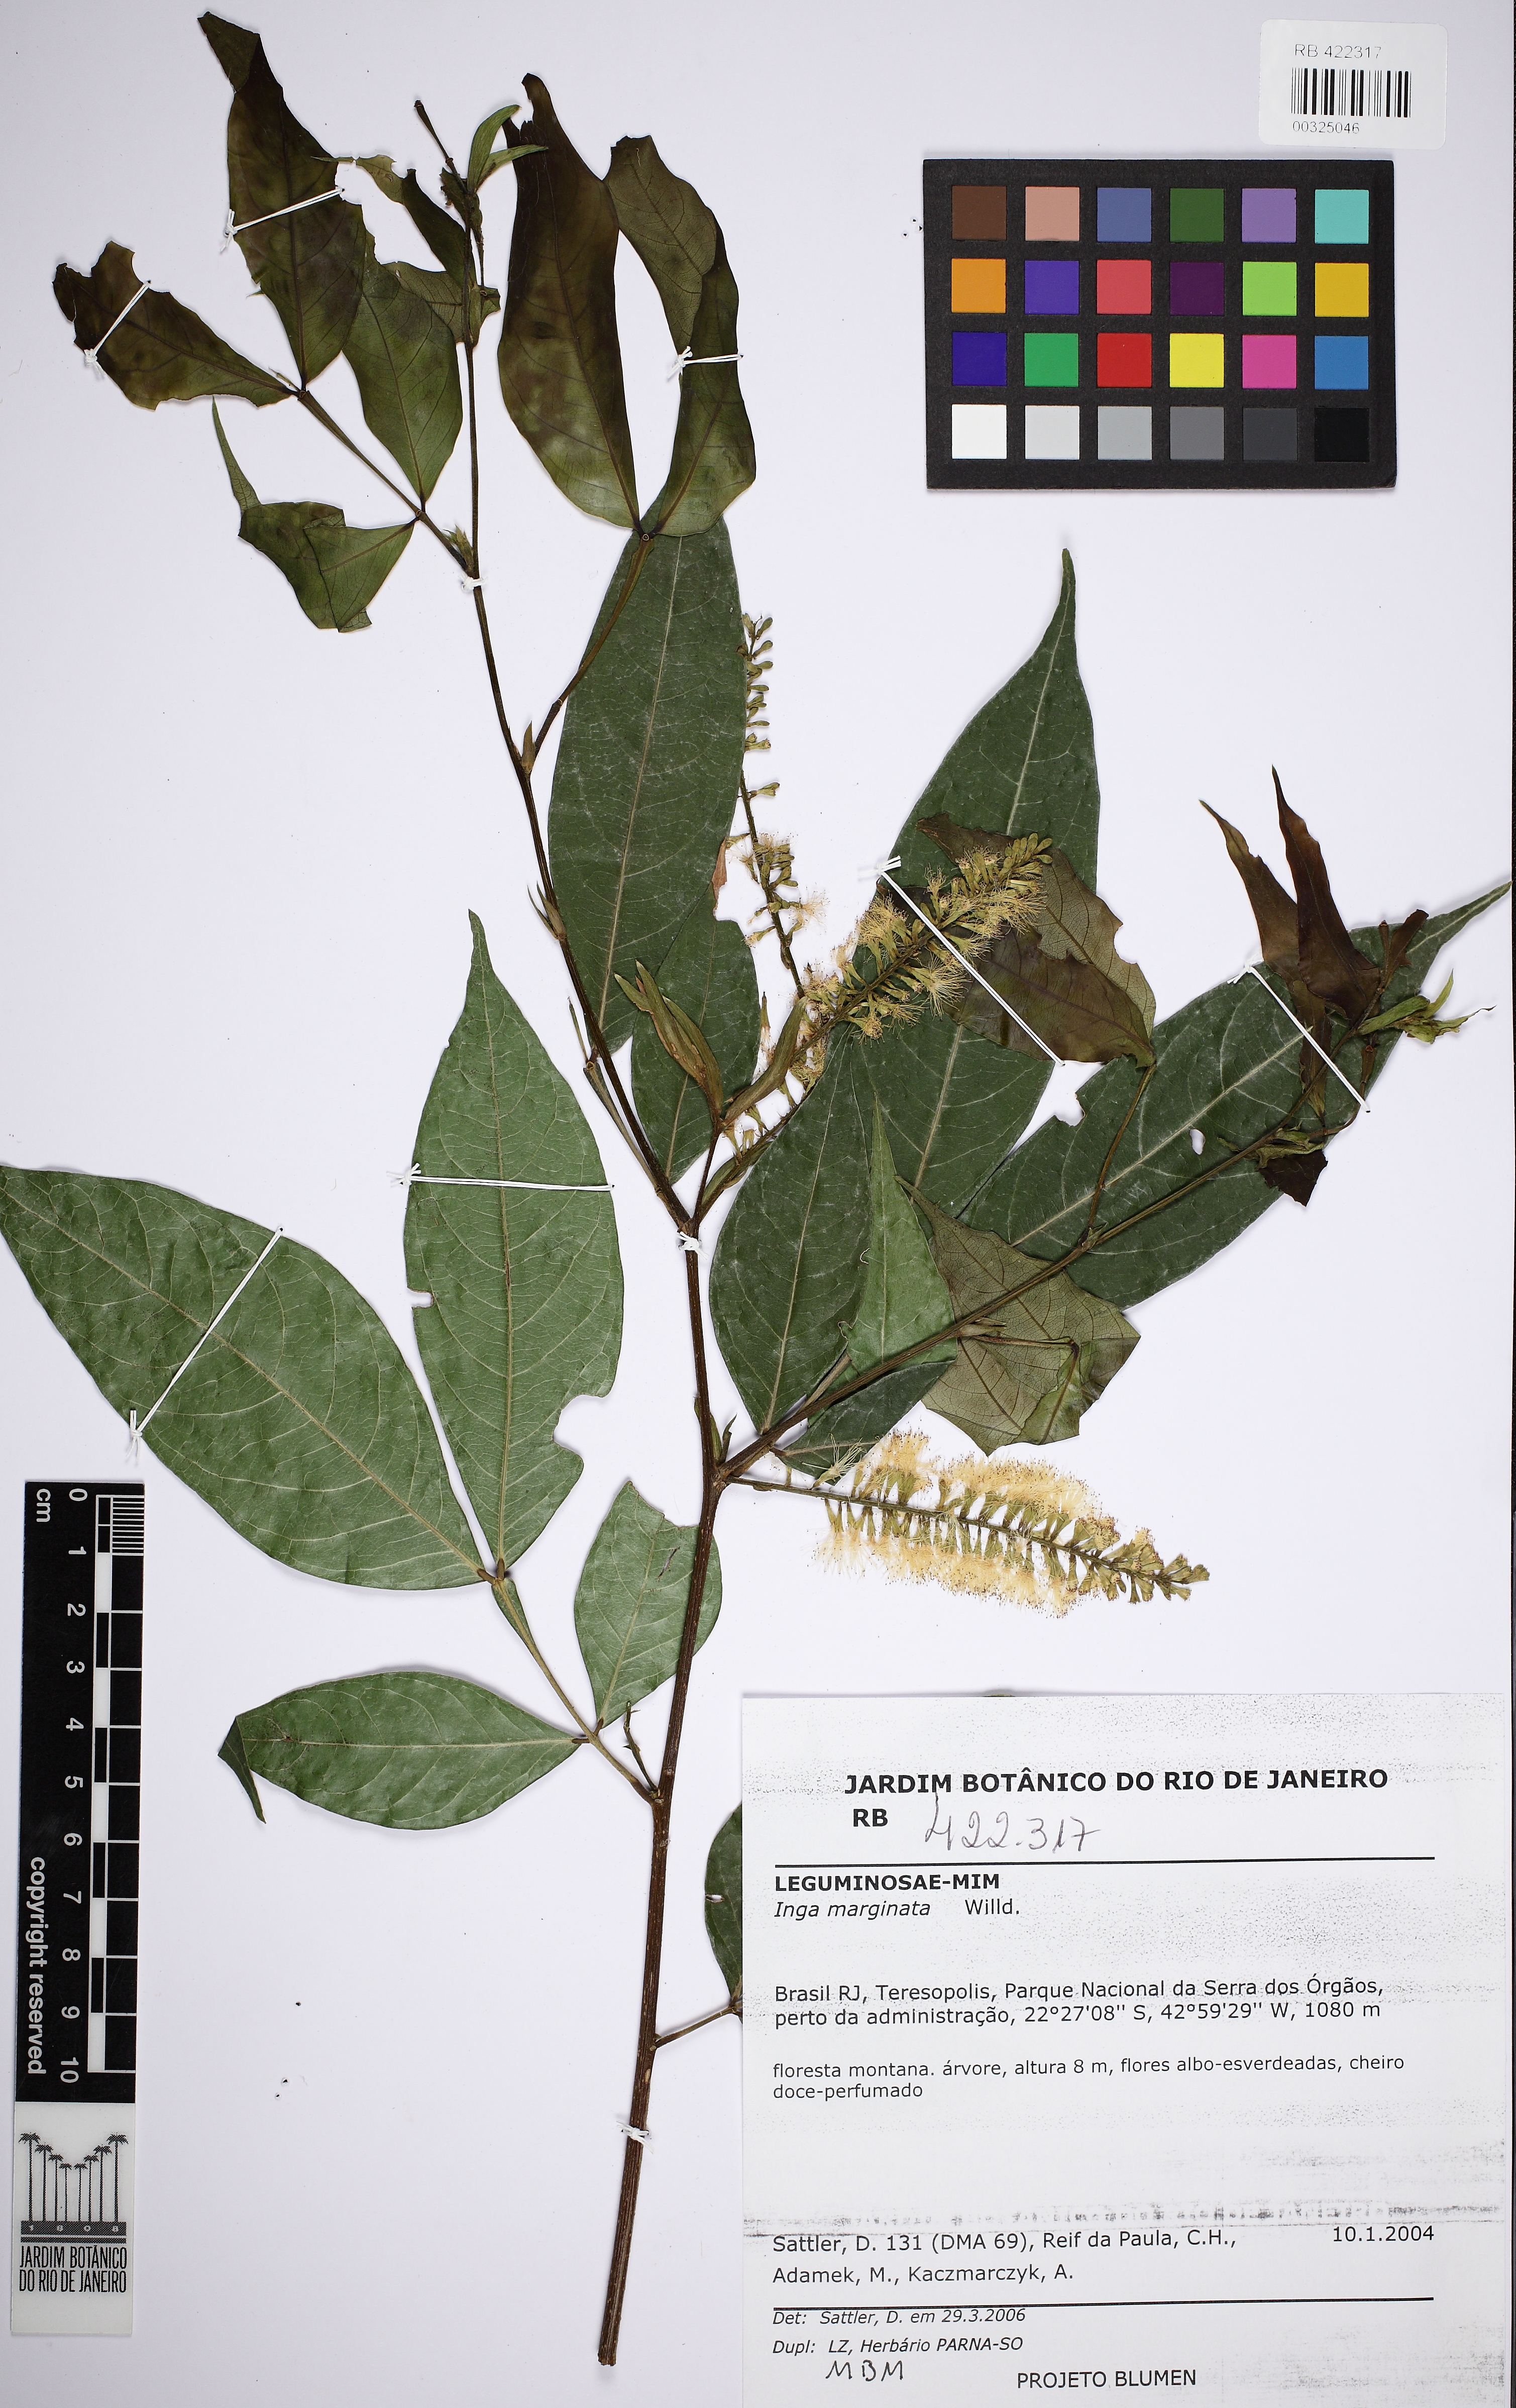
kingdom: Plantae
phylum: Tracheophyta
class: Magnoliopsida
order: Fabales
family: Fabaceae
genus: Inga
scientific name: Inga marginata
